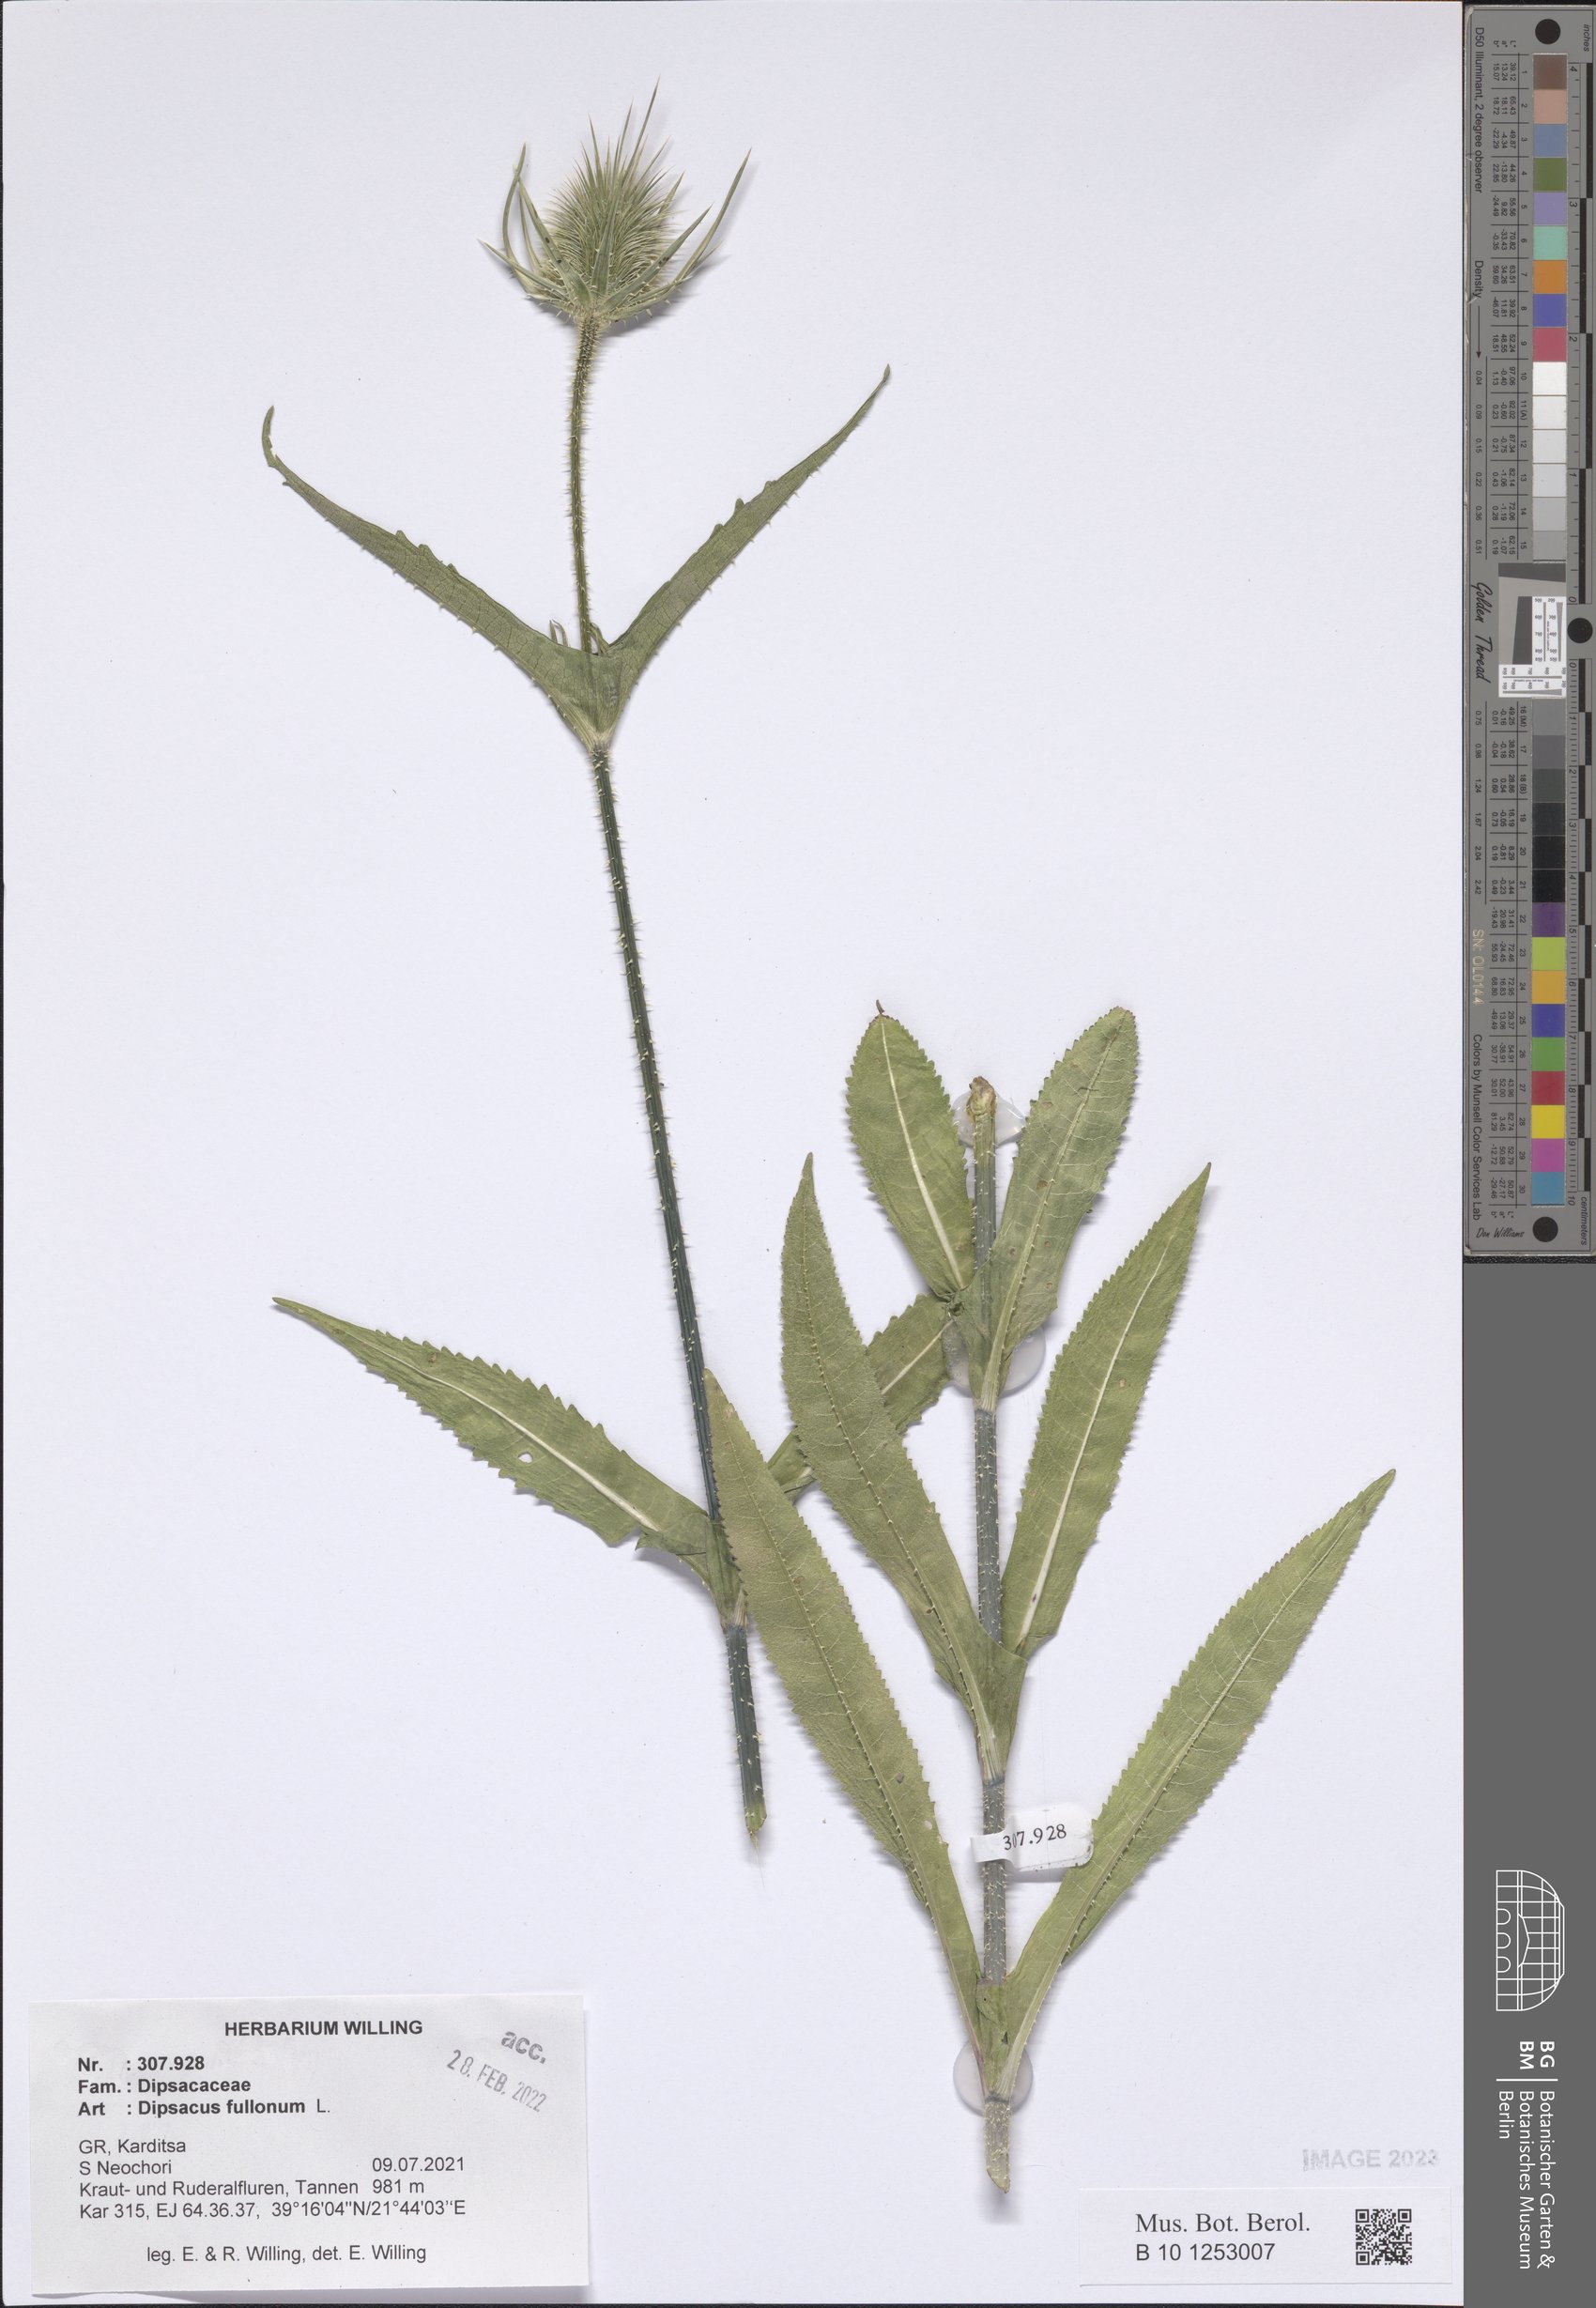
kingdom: Plantae
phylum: Tracheophyta
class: Magnoliopsida
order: Dipsacales
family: Caprifoliaceae
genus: Dipsacus
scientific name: Dipsacus fullonum
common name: Teasel
